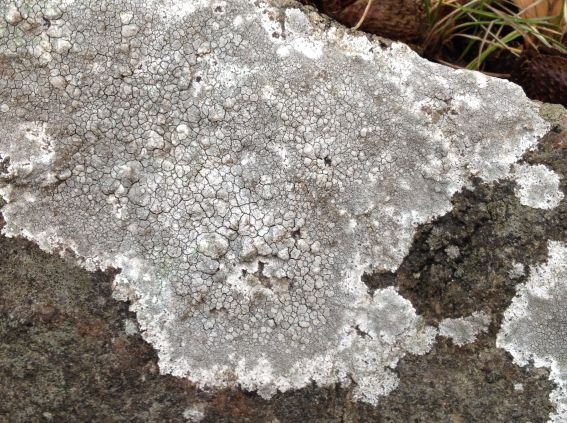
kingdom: Fungi
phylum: Ascomycota
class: Lecanoromycetes
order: Lecanorales
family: Lecanoraceae
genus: Glaucomaria
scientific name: Glaucomaria rupicola
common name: stengærde-kantskivelav
